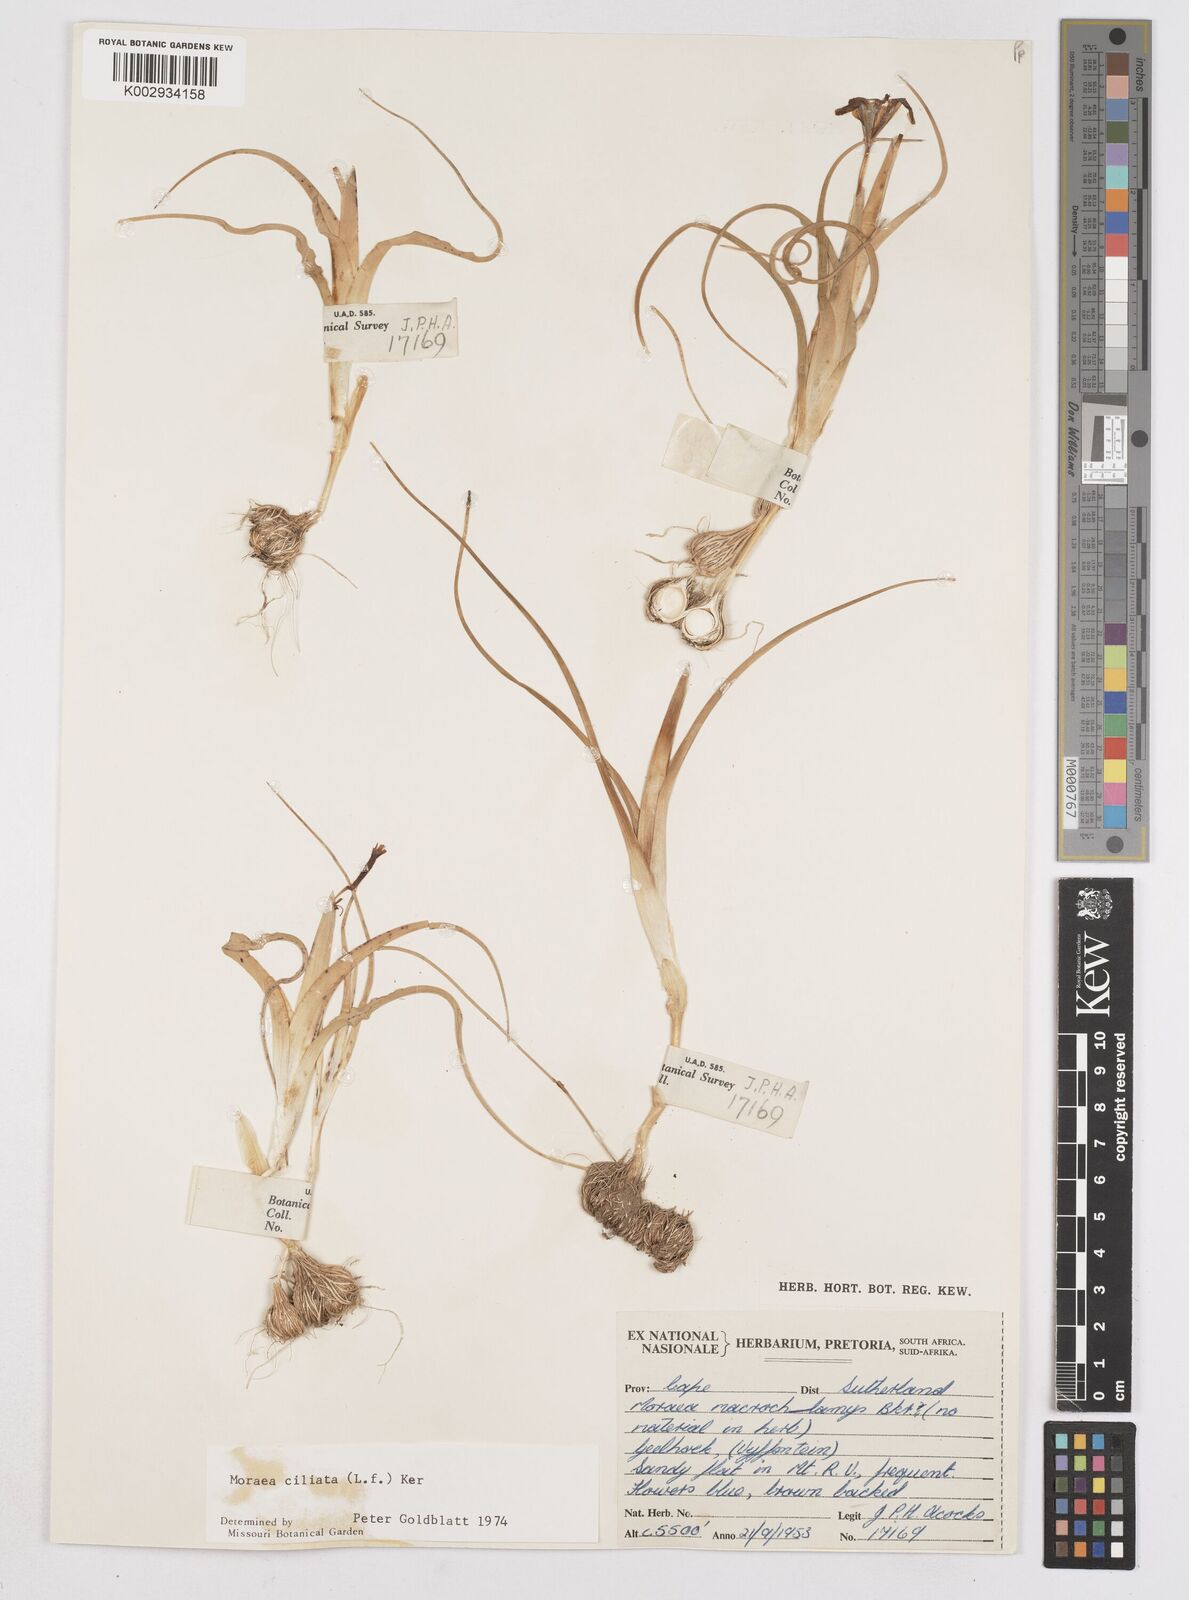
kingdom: Plantae
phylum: Tracheophyta
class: Liliopsida
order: Asparagales
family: Iridaceae
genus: Moraea
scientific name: Moraea ciliata
